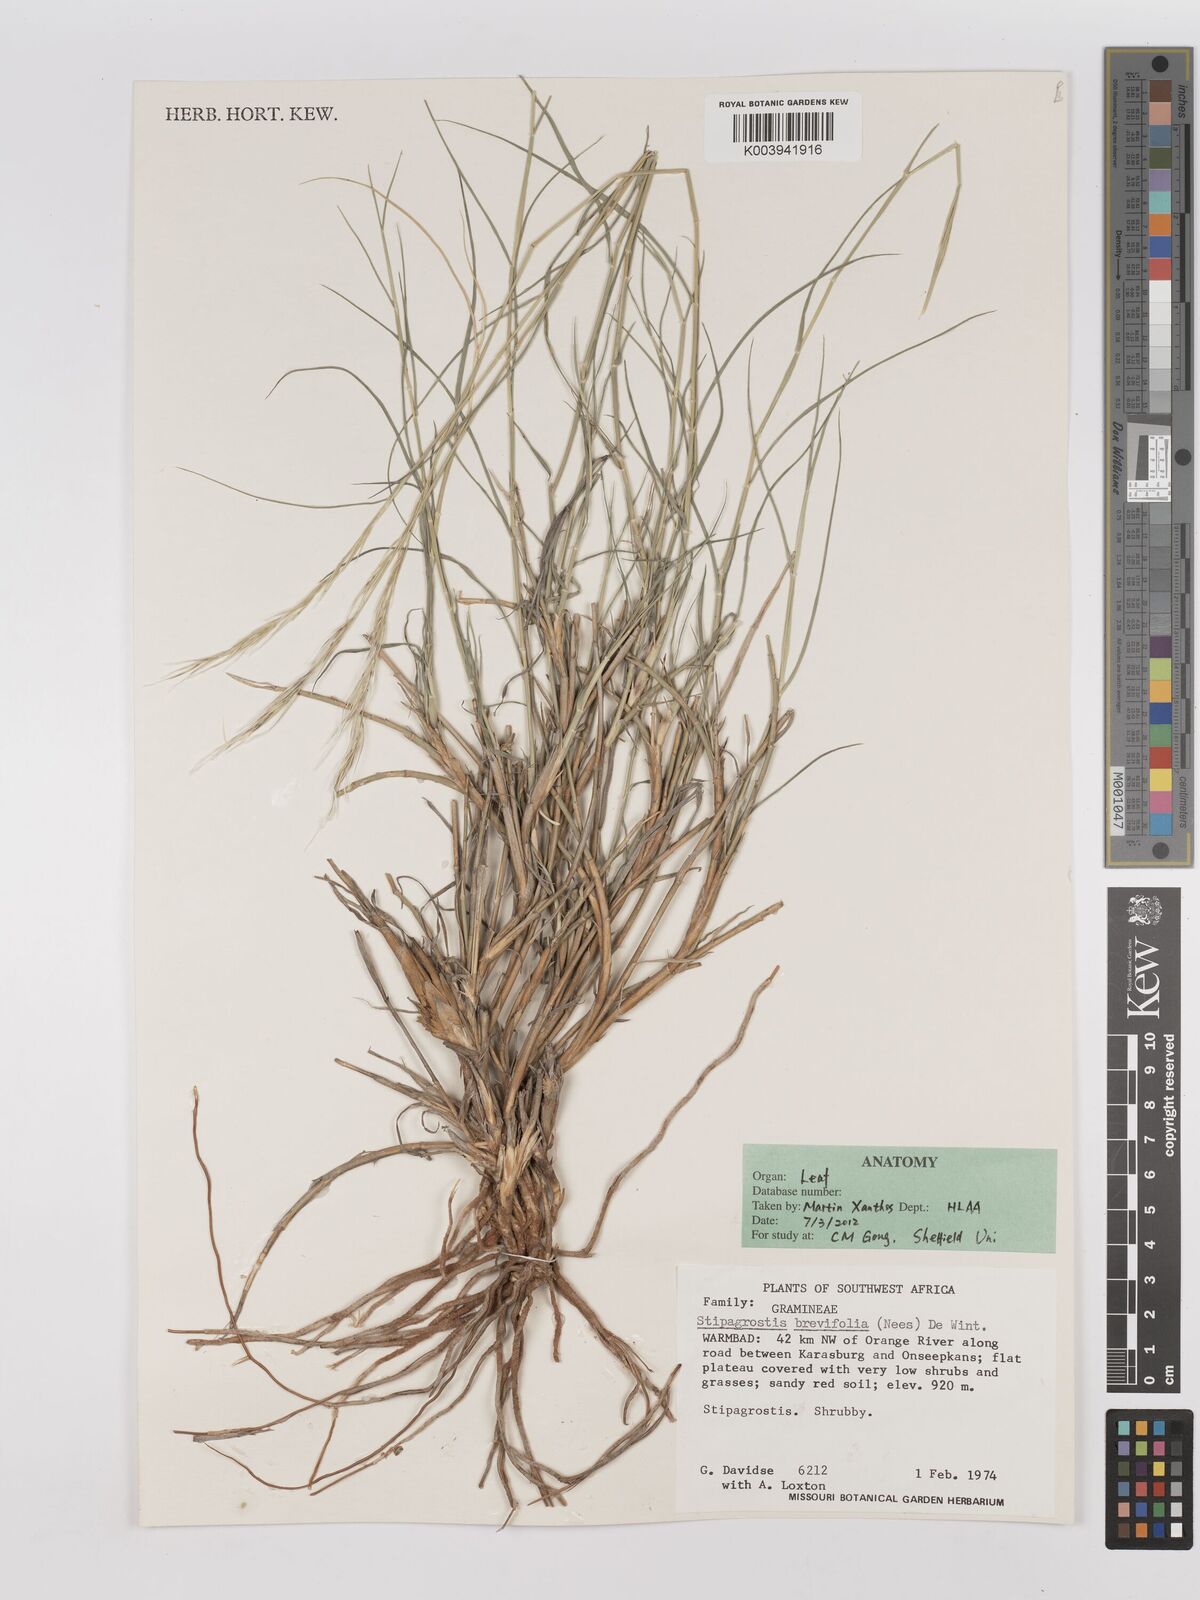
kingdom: Plantae
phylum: Tracheophyta
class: Liliopsida
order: Poales
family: Poaceae
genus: Stipagrostis
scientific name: Stipagrostis brevifolia
